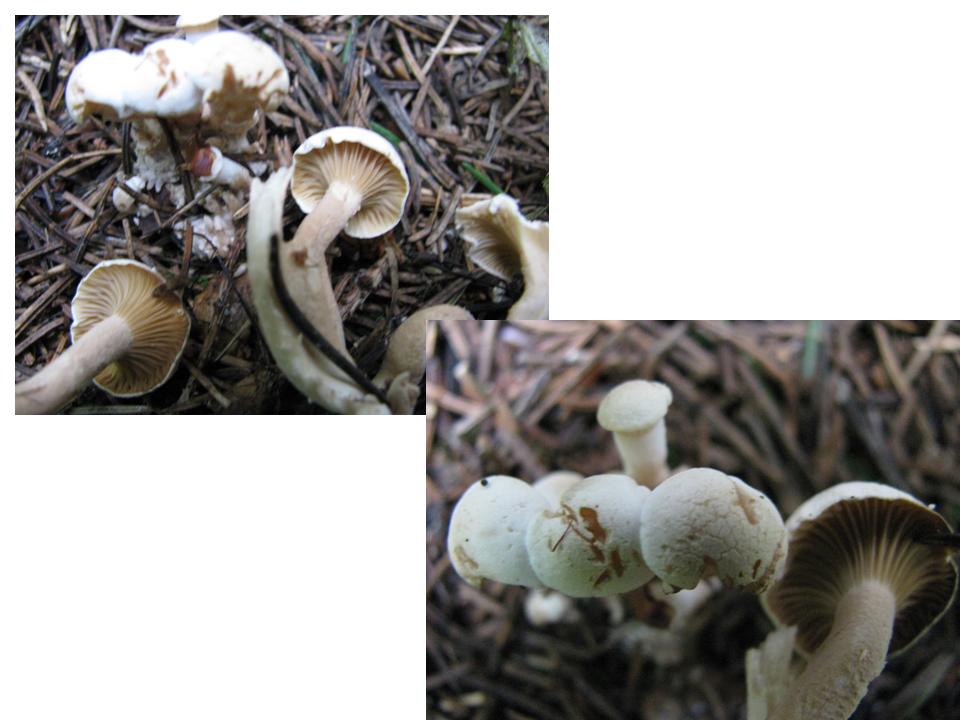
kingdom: Fungi
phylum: Basidiomycota
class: Agaricomycetes
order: Agaricales
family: Tricholomataceae
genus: Ripartites
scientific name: Ripartites
